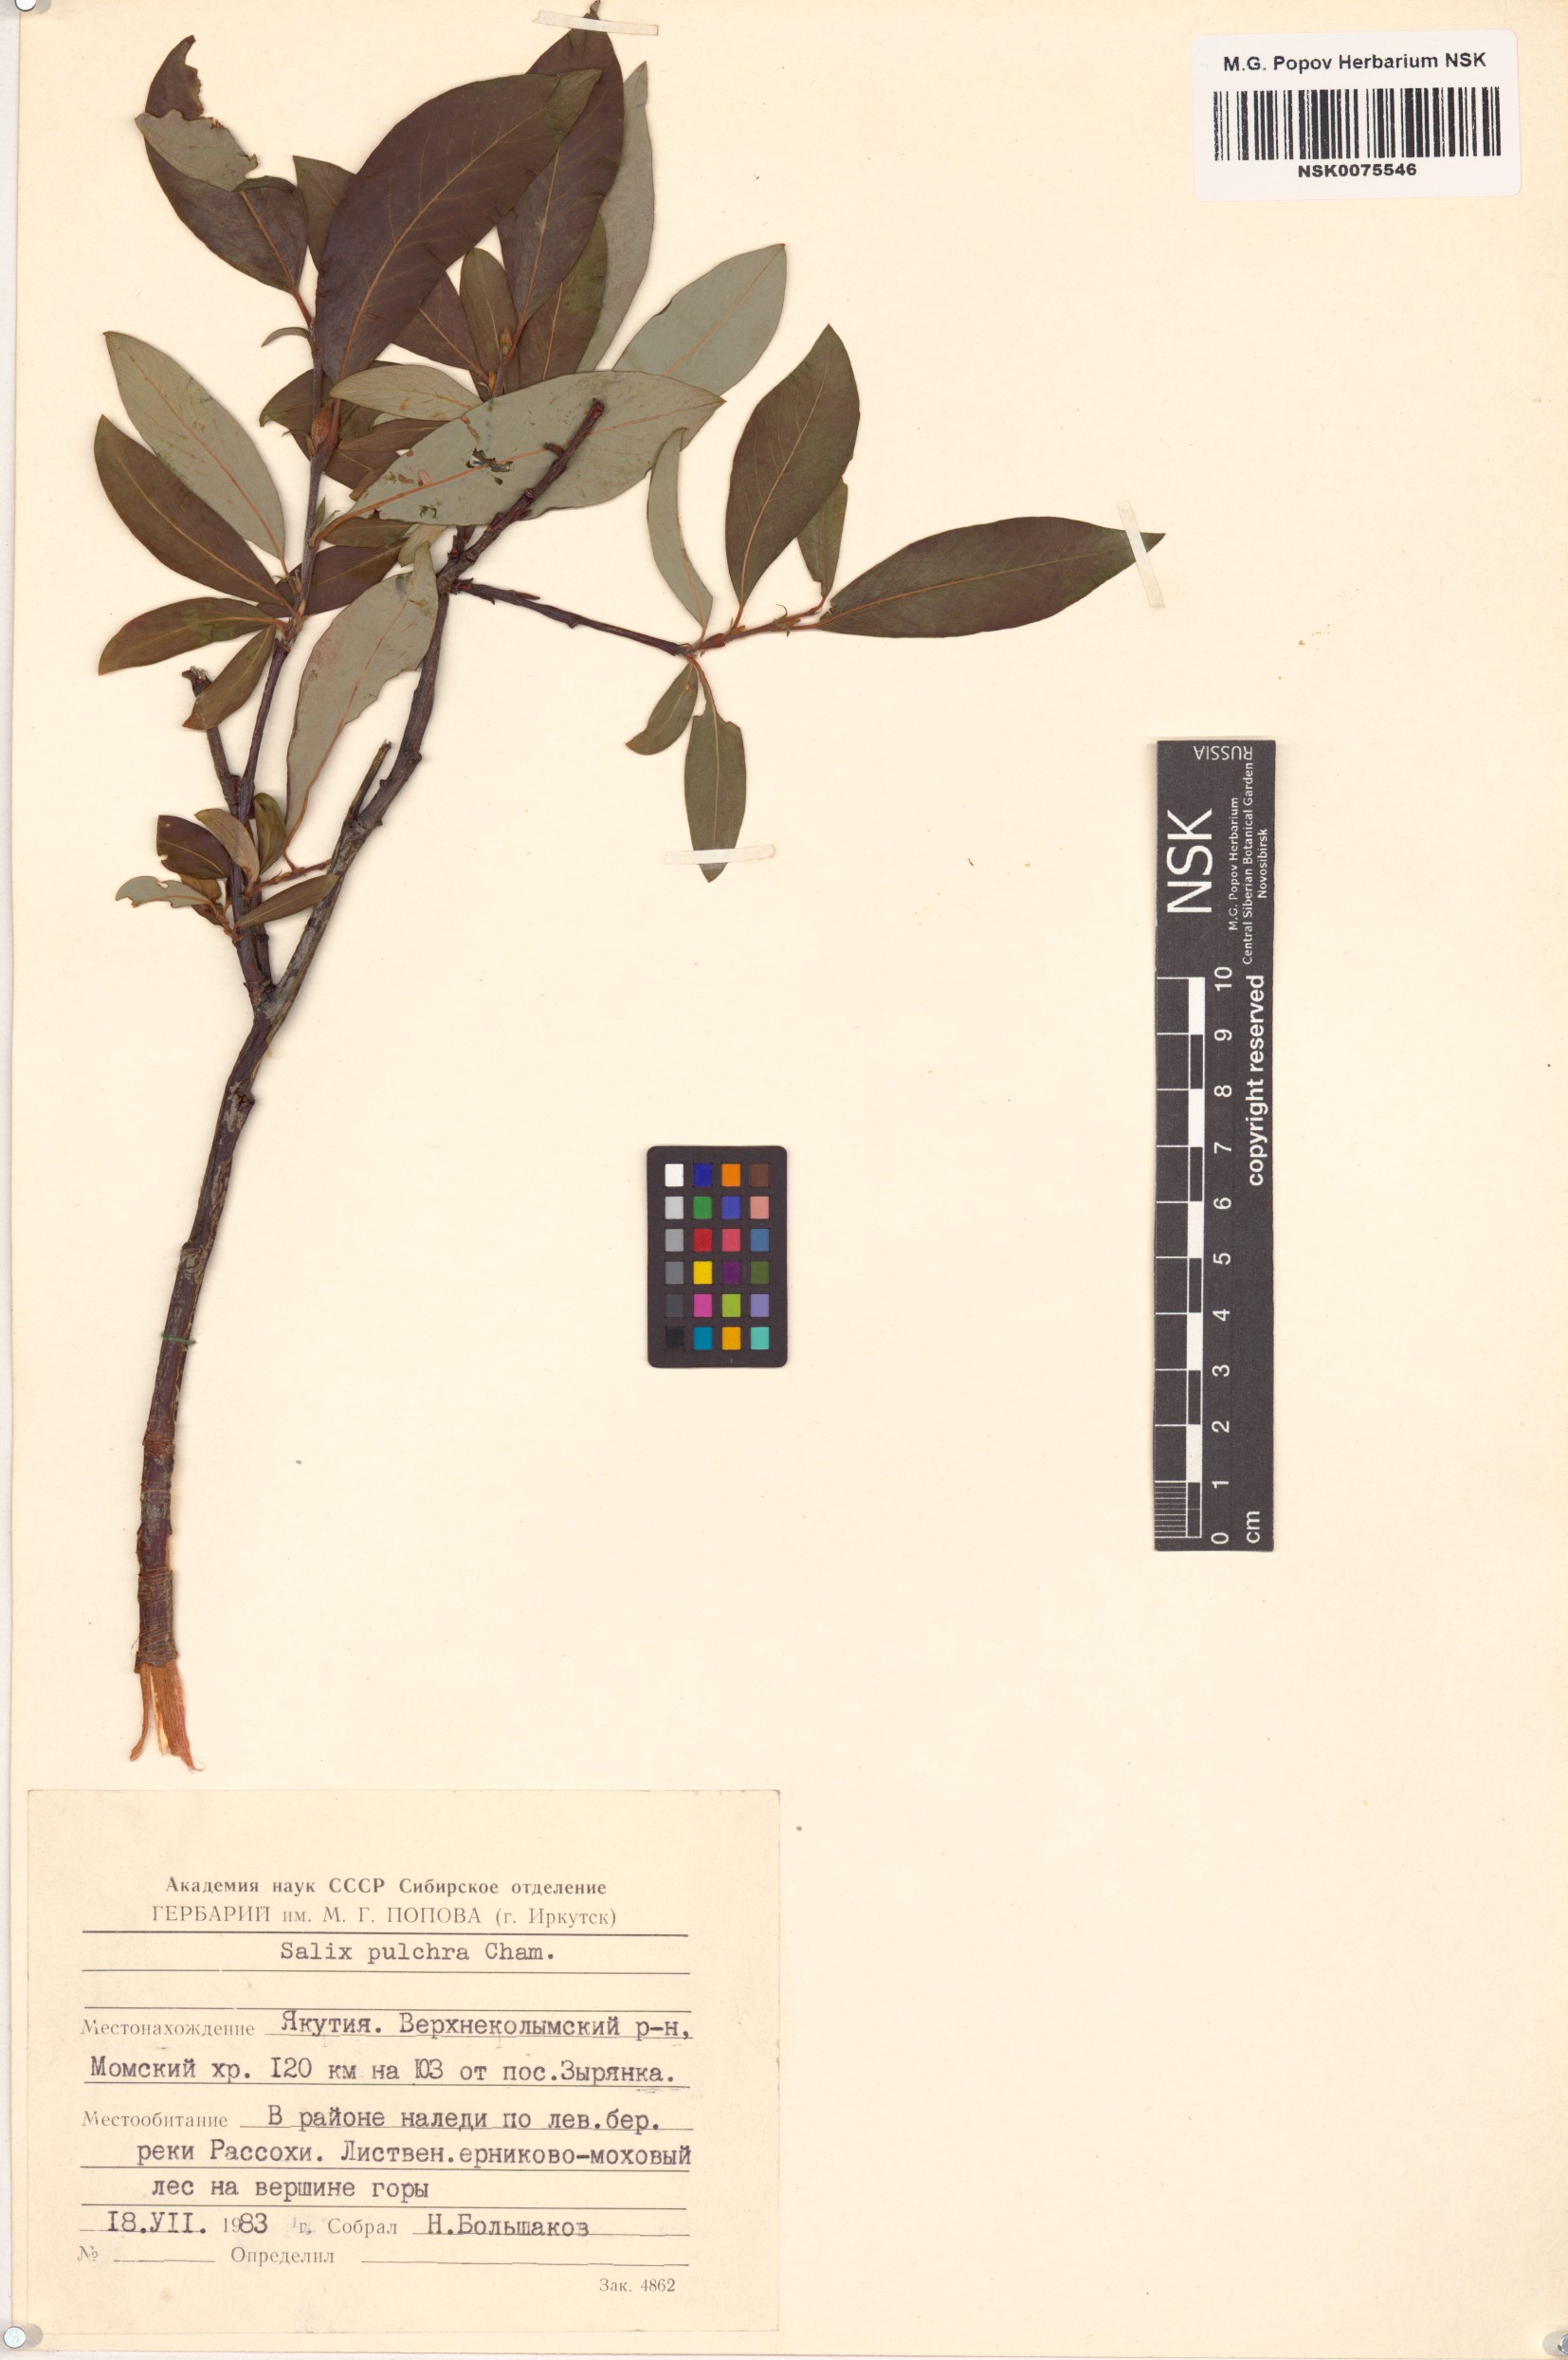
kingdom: Plantae
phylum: Tracheophyta
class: Magnoliopsida
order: Malpighiales
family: Salicaceae
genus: Salix
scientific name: Salix pulchra
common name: Diamond-leaved willow
